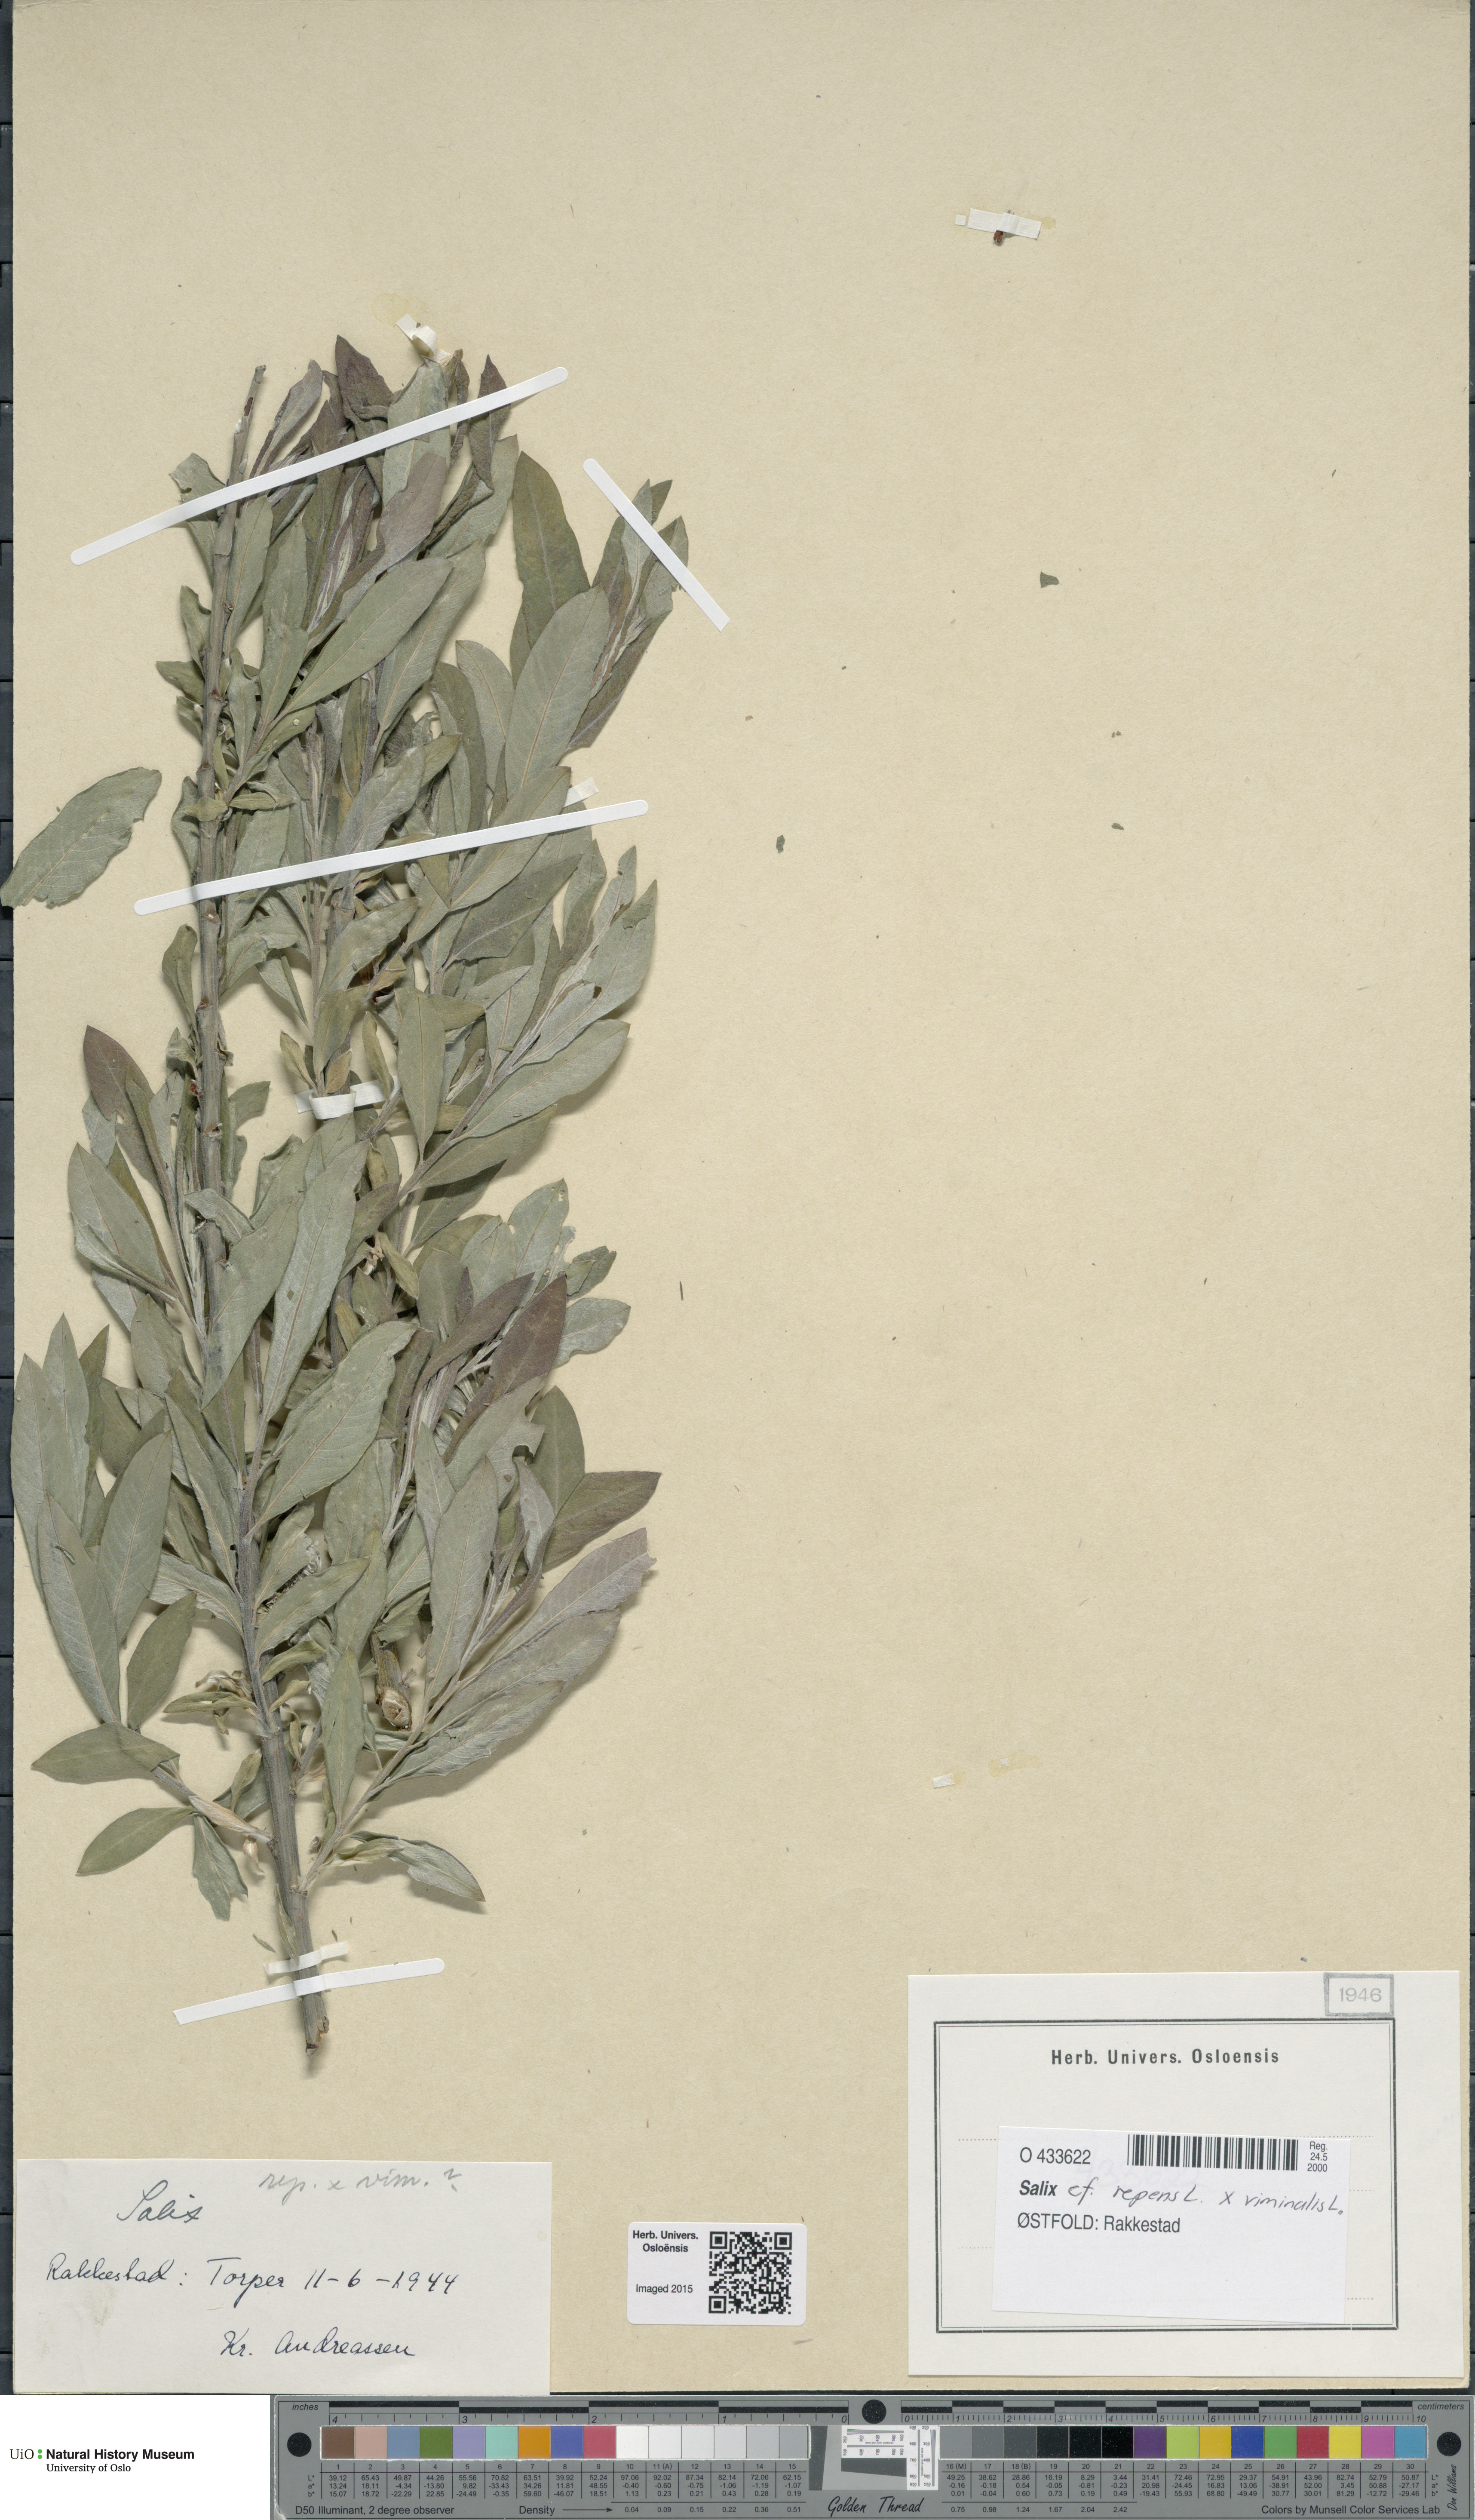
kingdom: Plantae
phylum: Tracheophyta
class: Magnoliopsida
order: Malpighiales
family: Salicaceae
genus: Salix
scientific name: Salix
